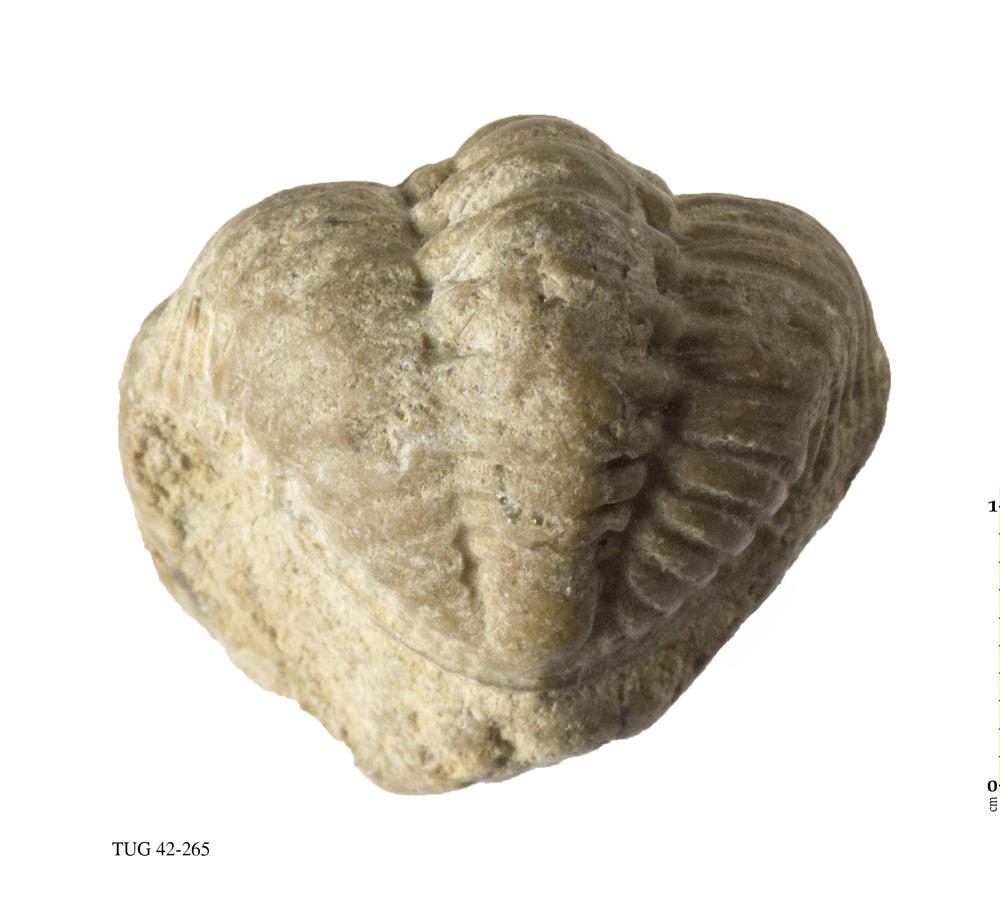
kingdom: Animalia
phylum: Arthropoda
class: Trilobita
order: Phacopida
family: Phacopidae
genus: Phacops
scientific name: Phacops
